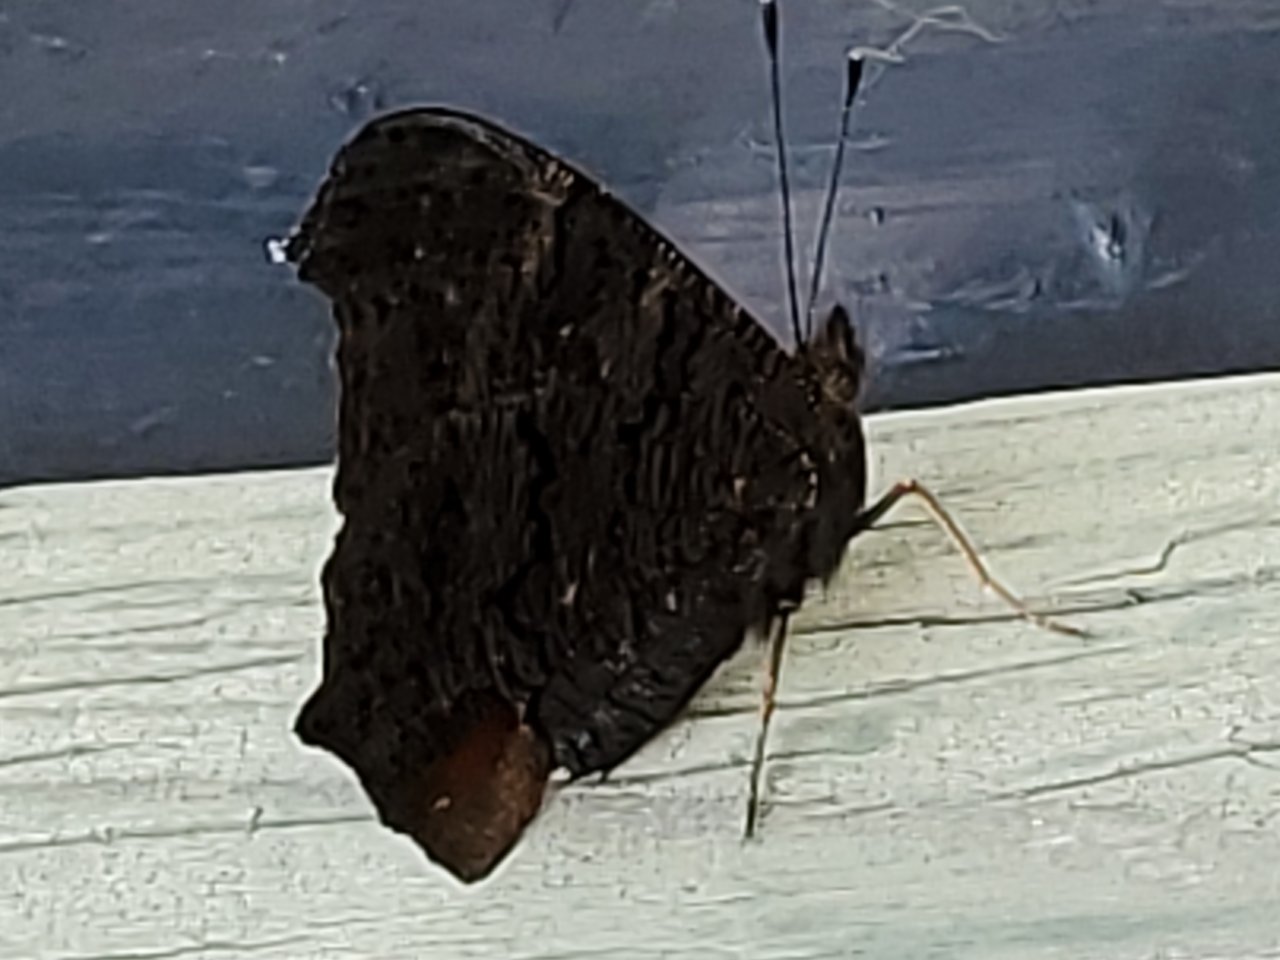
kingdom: Animalia
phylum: Arthropoda
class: Insecta
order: Lepidoptera
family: Nymphalidae
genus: Aglais
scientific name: Aglais io
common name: European Peacock
